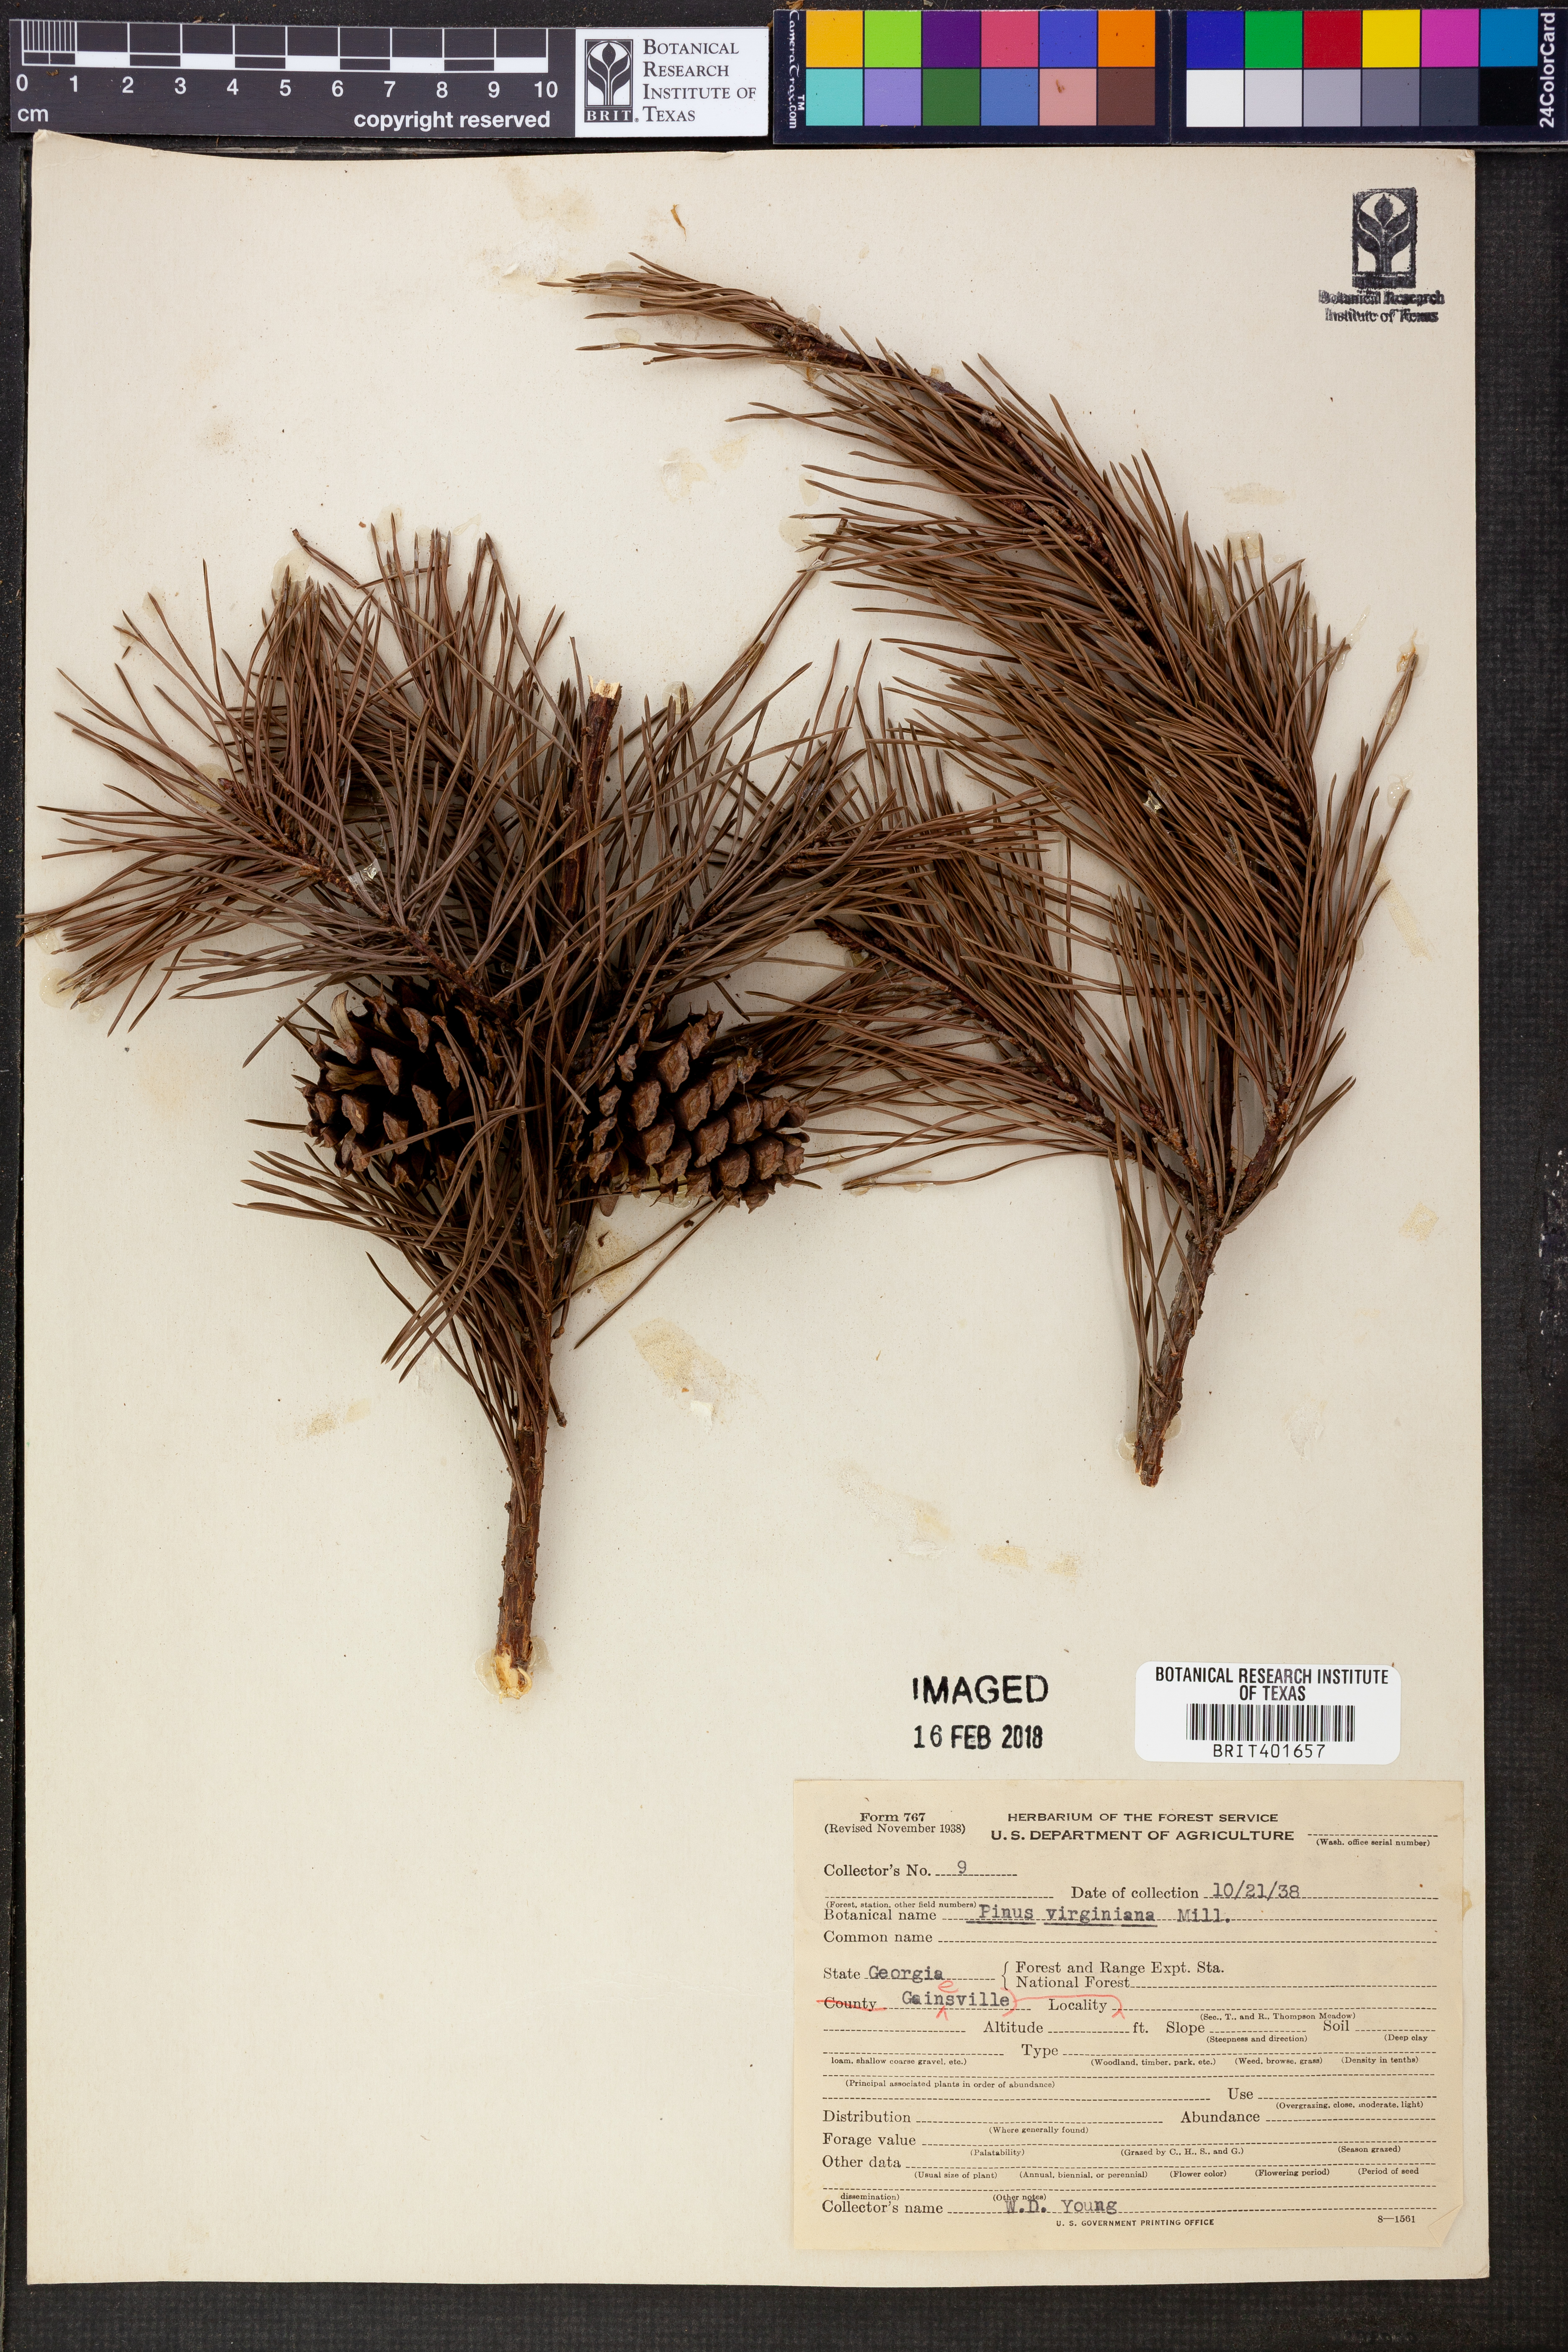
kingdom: Plantae
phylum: Tracheophyta
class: Pinopsida
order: Pinales
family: Pinaceae
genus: Pinus
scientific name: Pinus virginiana
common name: Scrub pine
